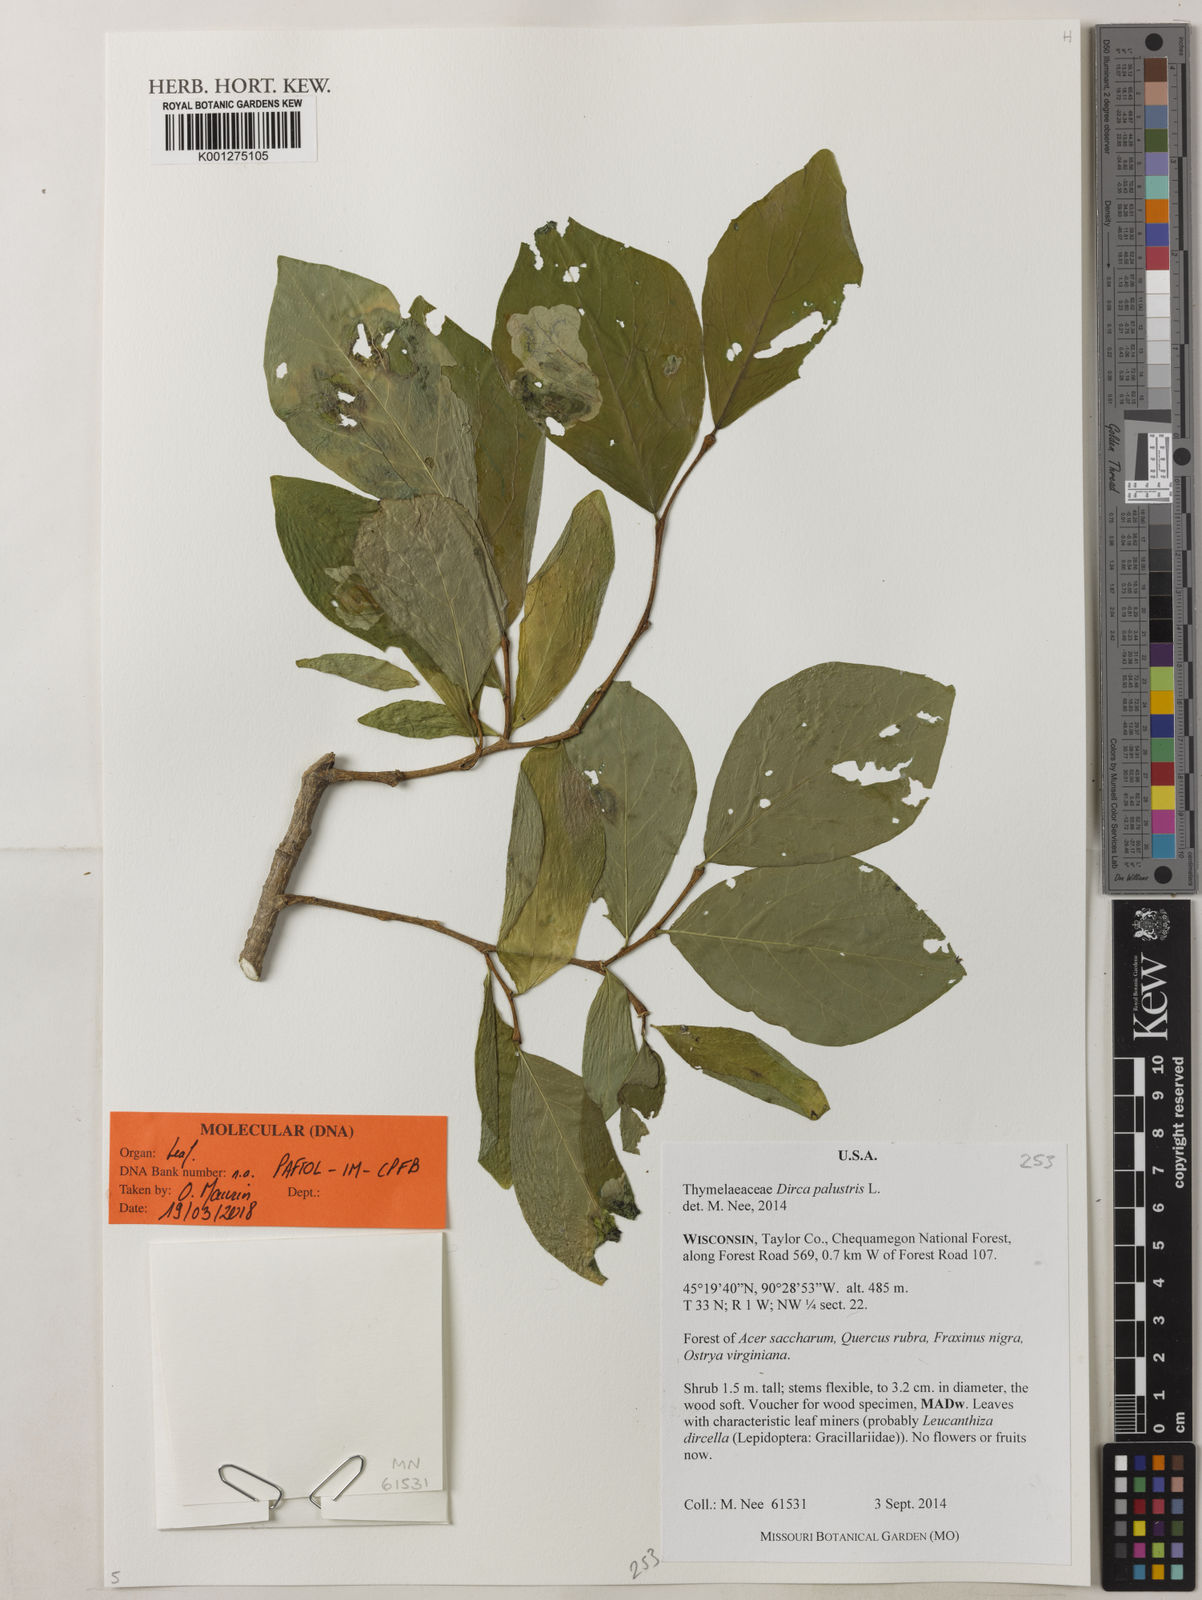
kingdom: Plantae
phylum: Tracheophyta
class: Magnoliopsida
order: Malvales
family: Thymelaeaceae
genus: Dirca
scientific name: Dirca palustris
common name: Leatherwood
